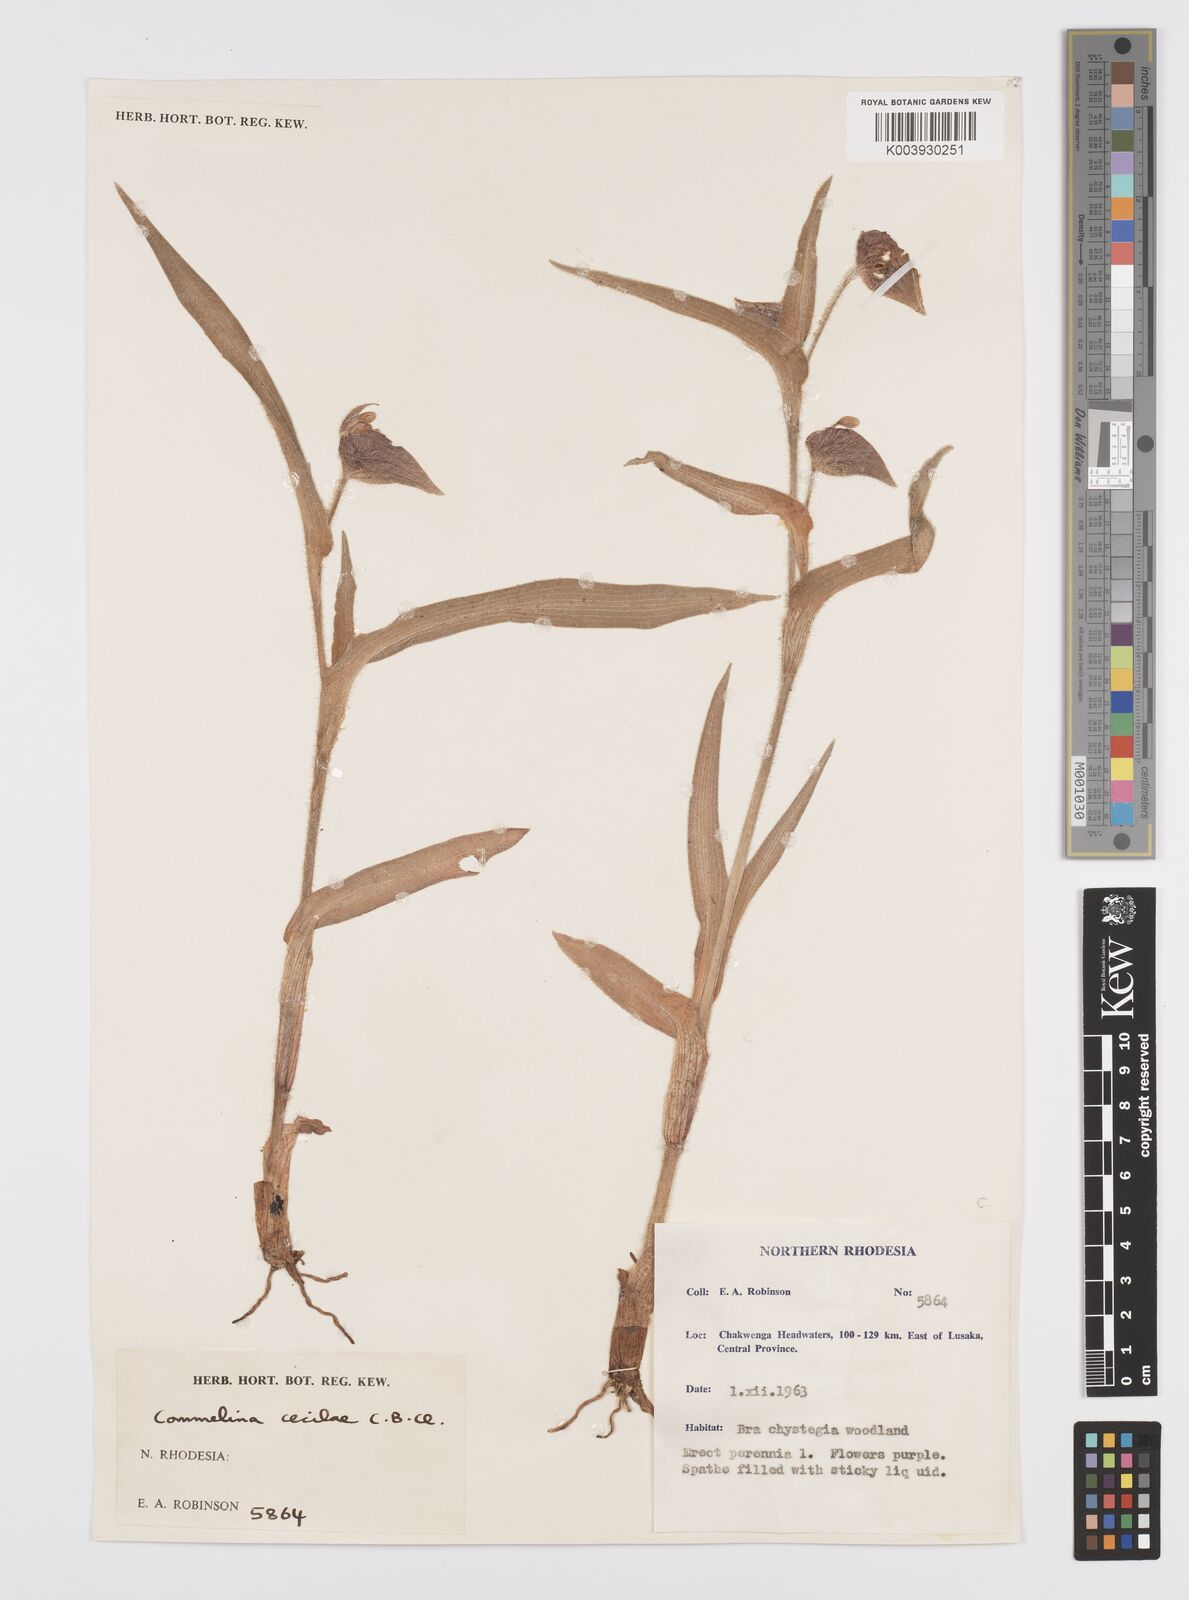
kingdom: Plantae
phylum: Tracheophyta
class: Liliopsida
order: Commelinales
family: Commelinaceae
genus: Commelina
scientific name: Commelina schweinfurthii
